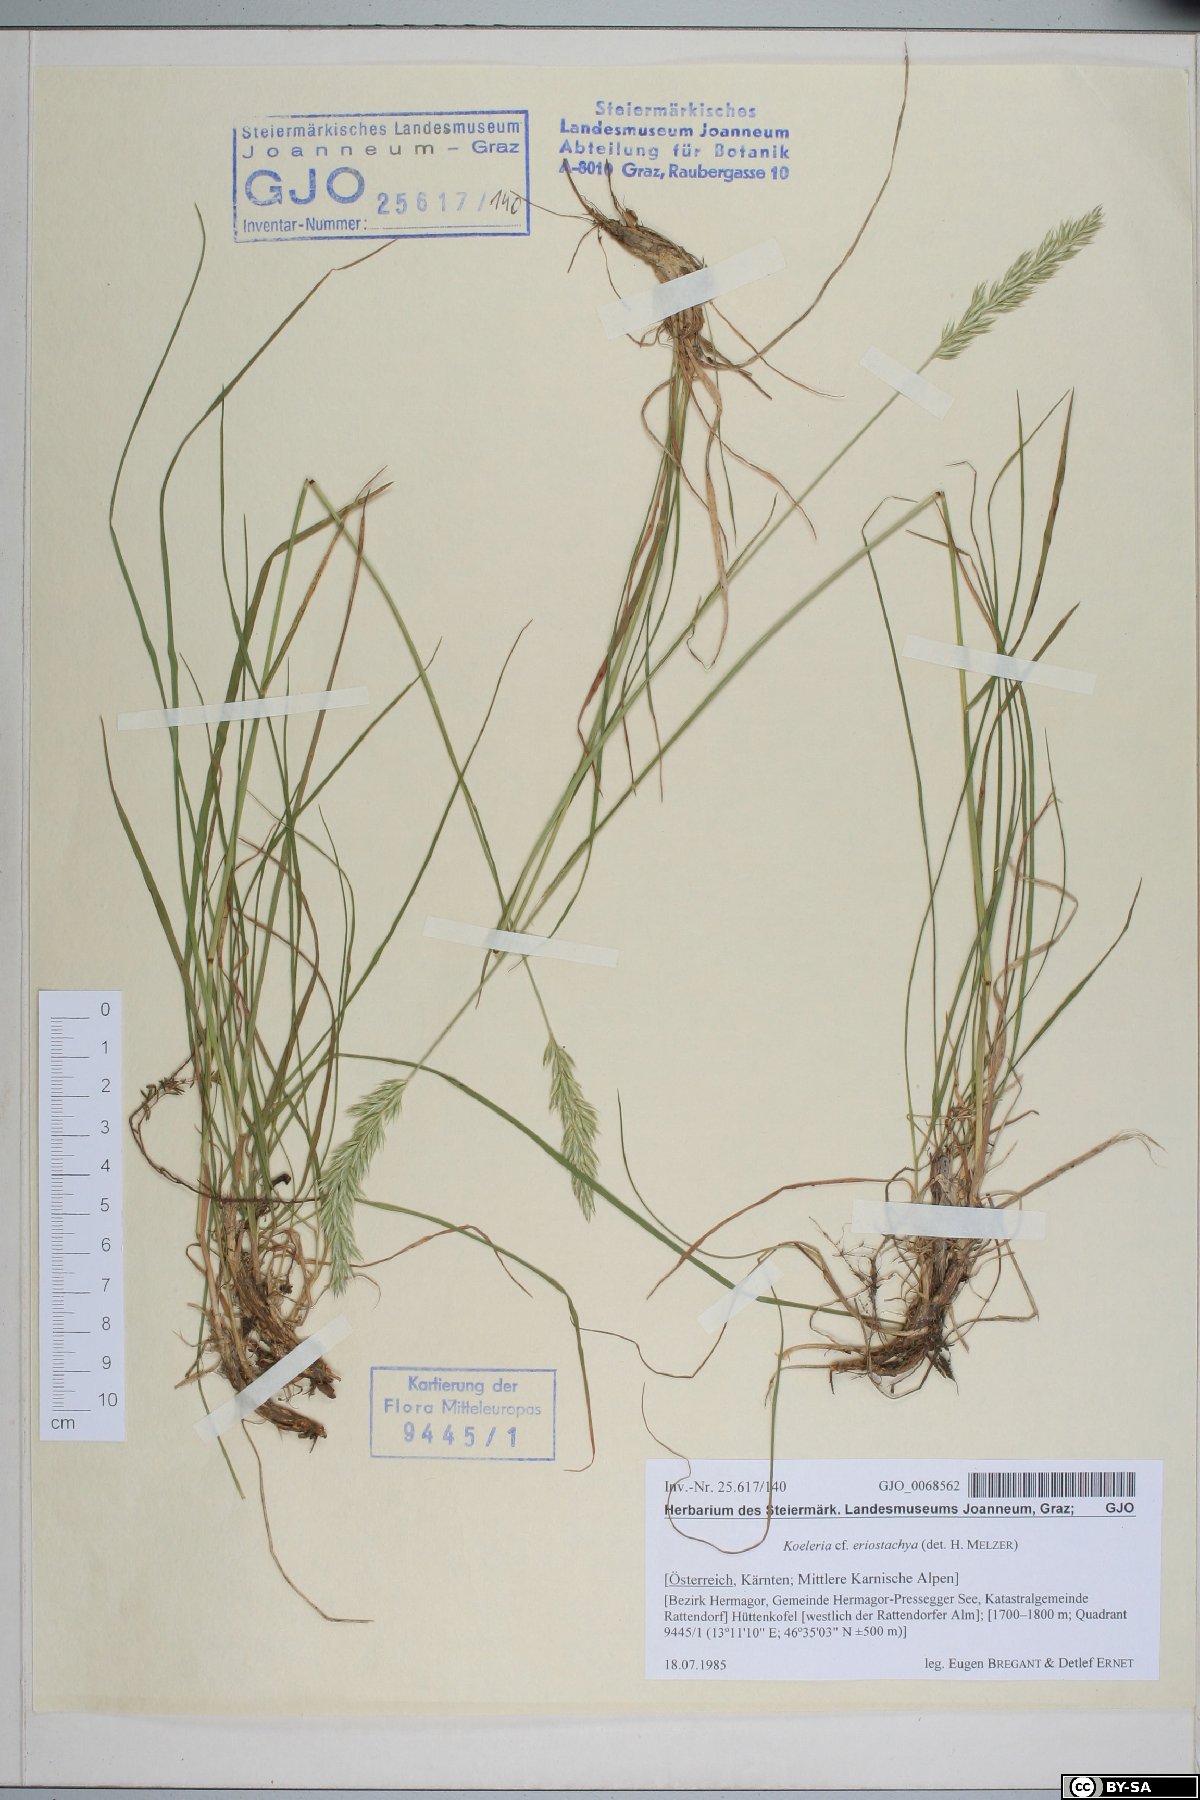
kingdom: Plantae
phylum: Tracheophyta
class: Liliopsida
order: Poales
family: Poaceae
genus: Koeleria
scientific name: Koeleria eriostachya
